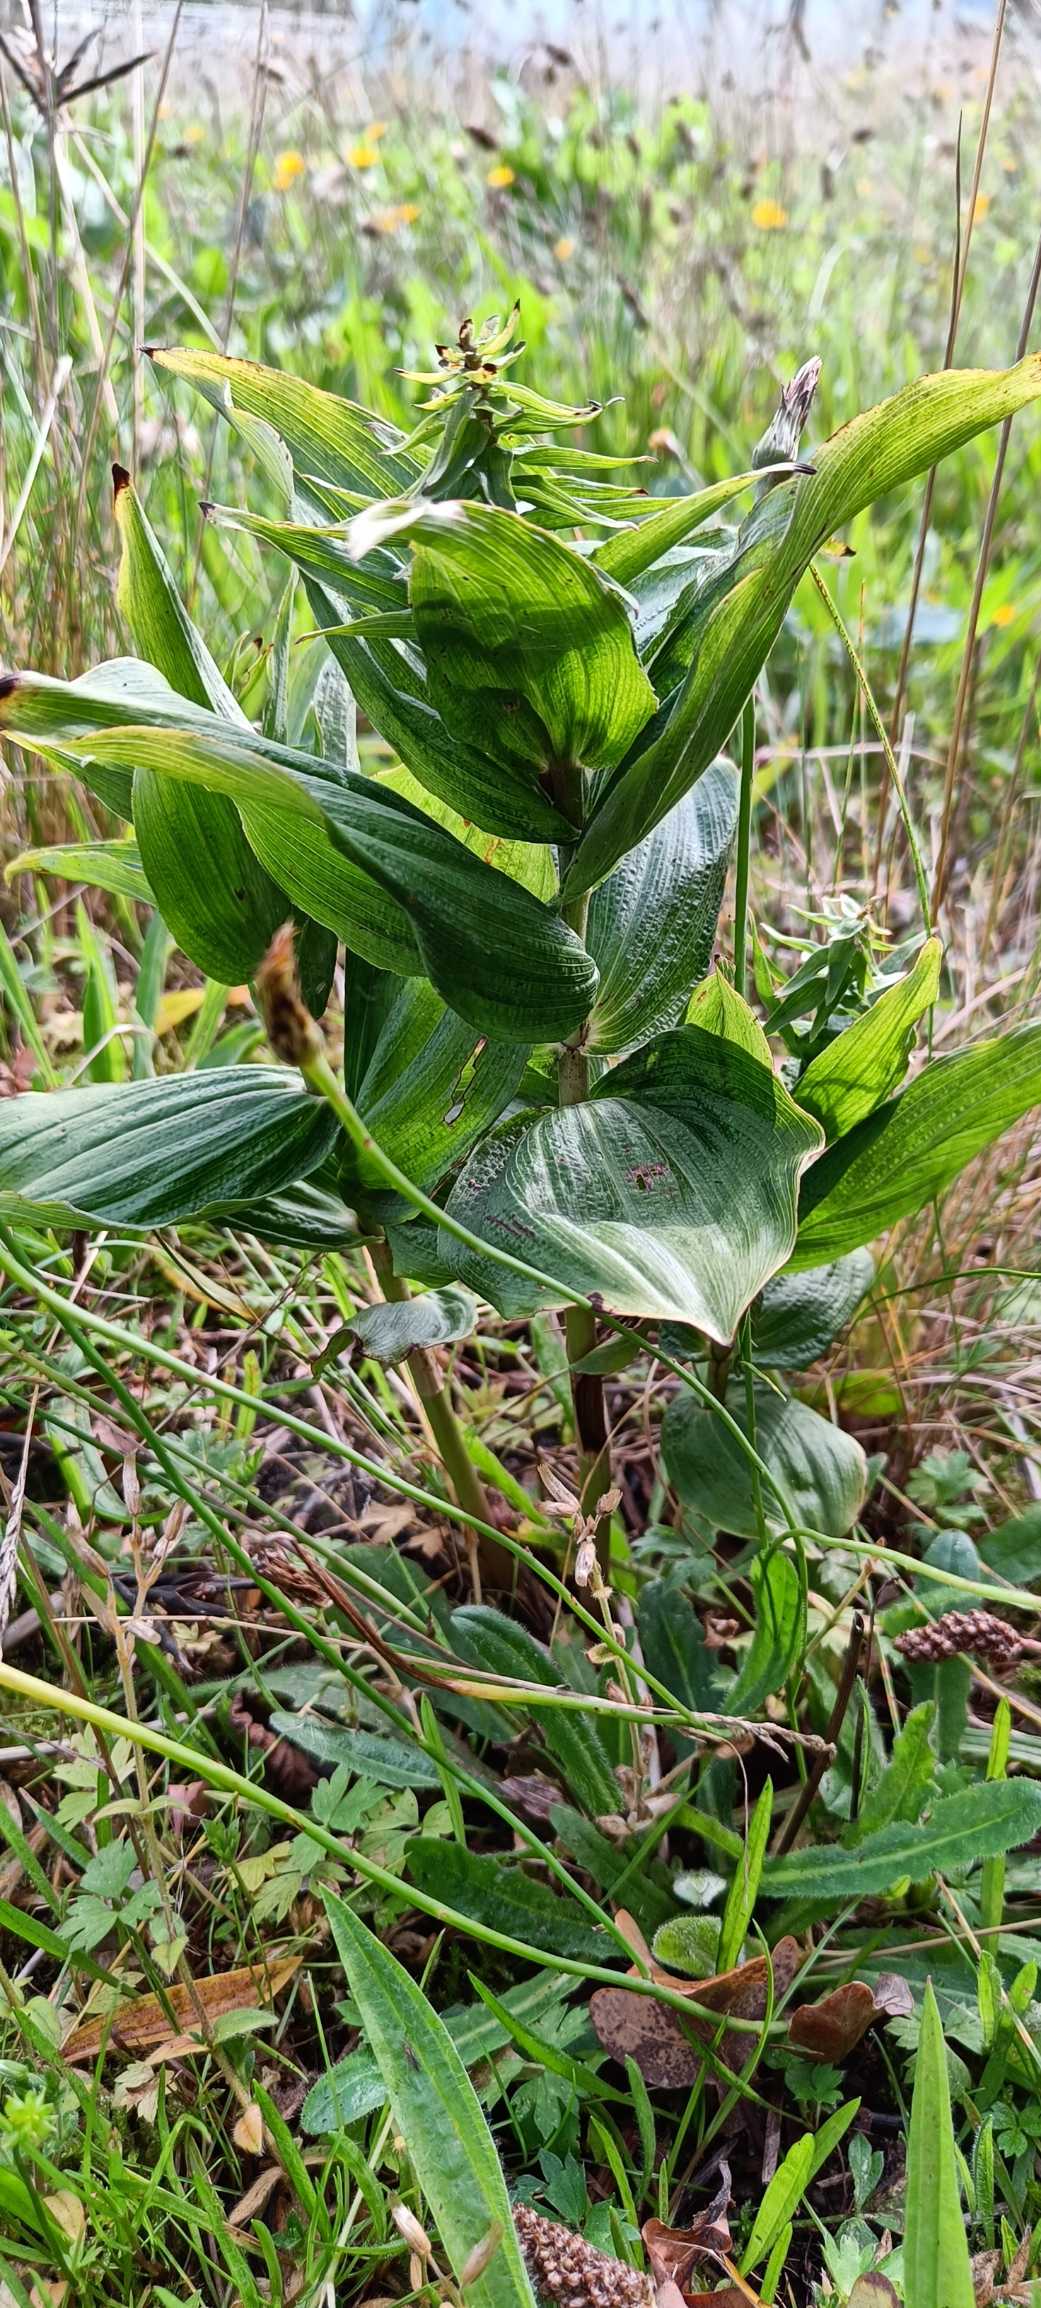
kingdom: Plantae
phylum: Tracheophyta
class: Liliopsida
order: Asparagales
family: Orchidaceae
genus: Epipactis
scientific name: Epipactis helleborine
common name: Skov-hullæbe
